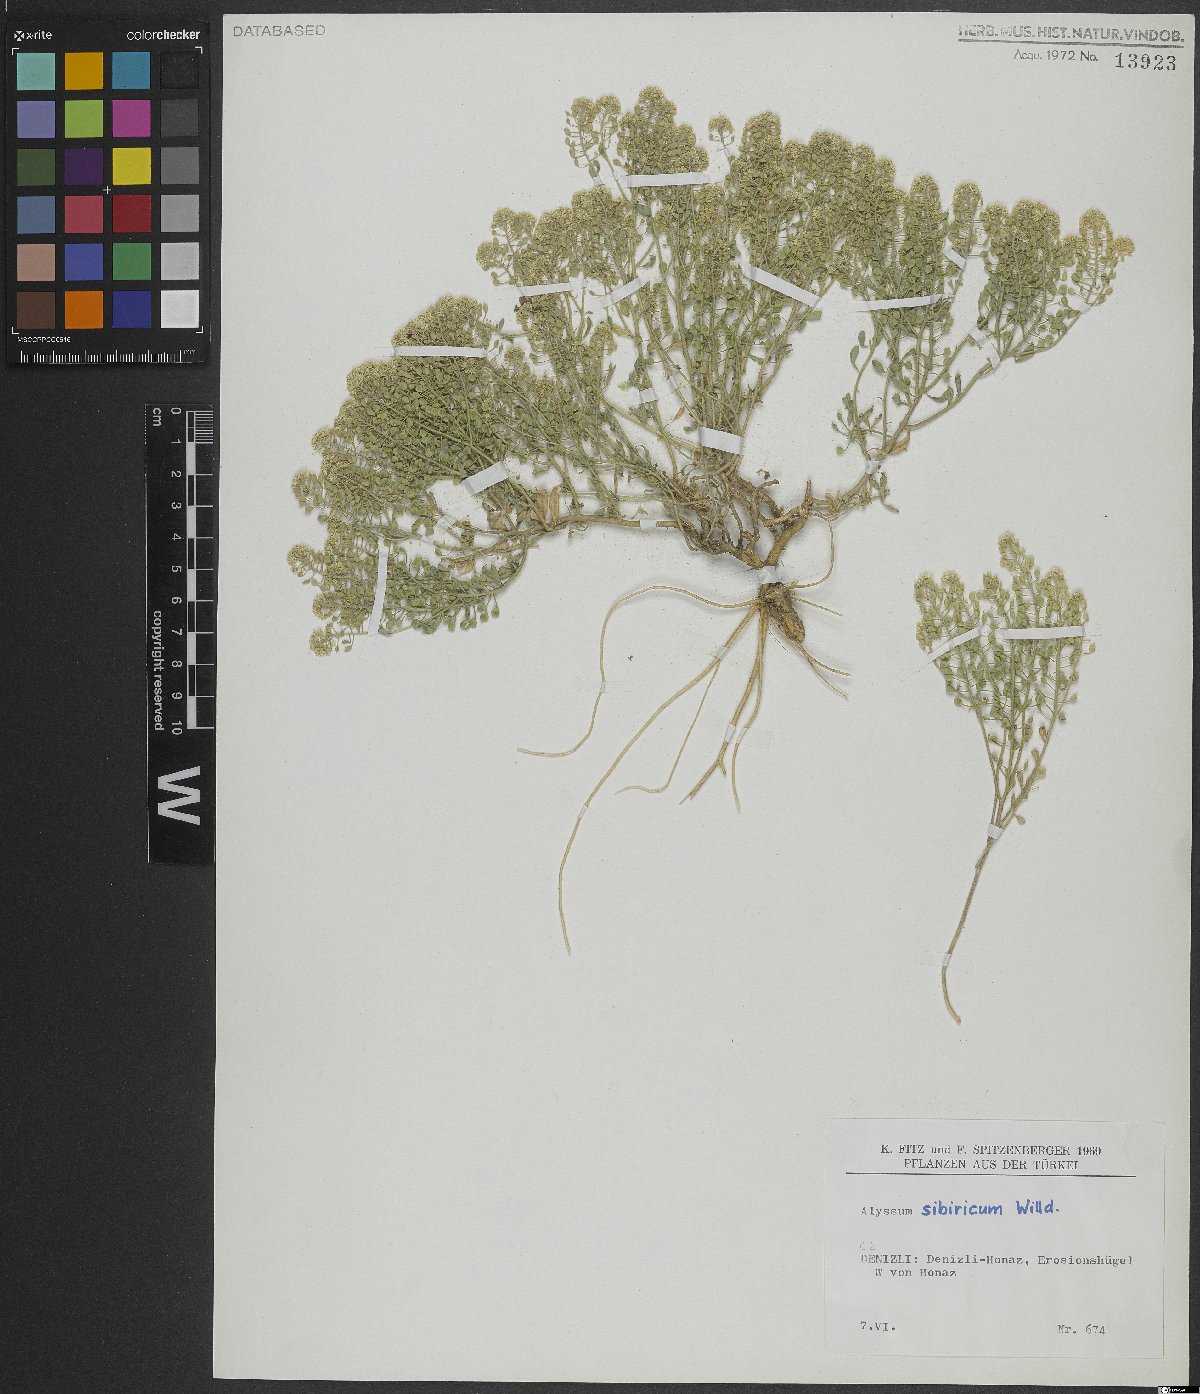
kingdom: Plantae
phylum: Tracheophyta
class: Magnoliopsida
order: Brassicales
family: Brassicaceae
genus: Odontarrhena
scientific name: Odontarrhena sibirica
